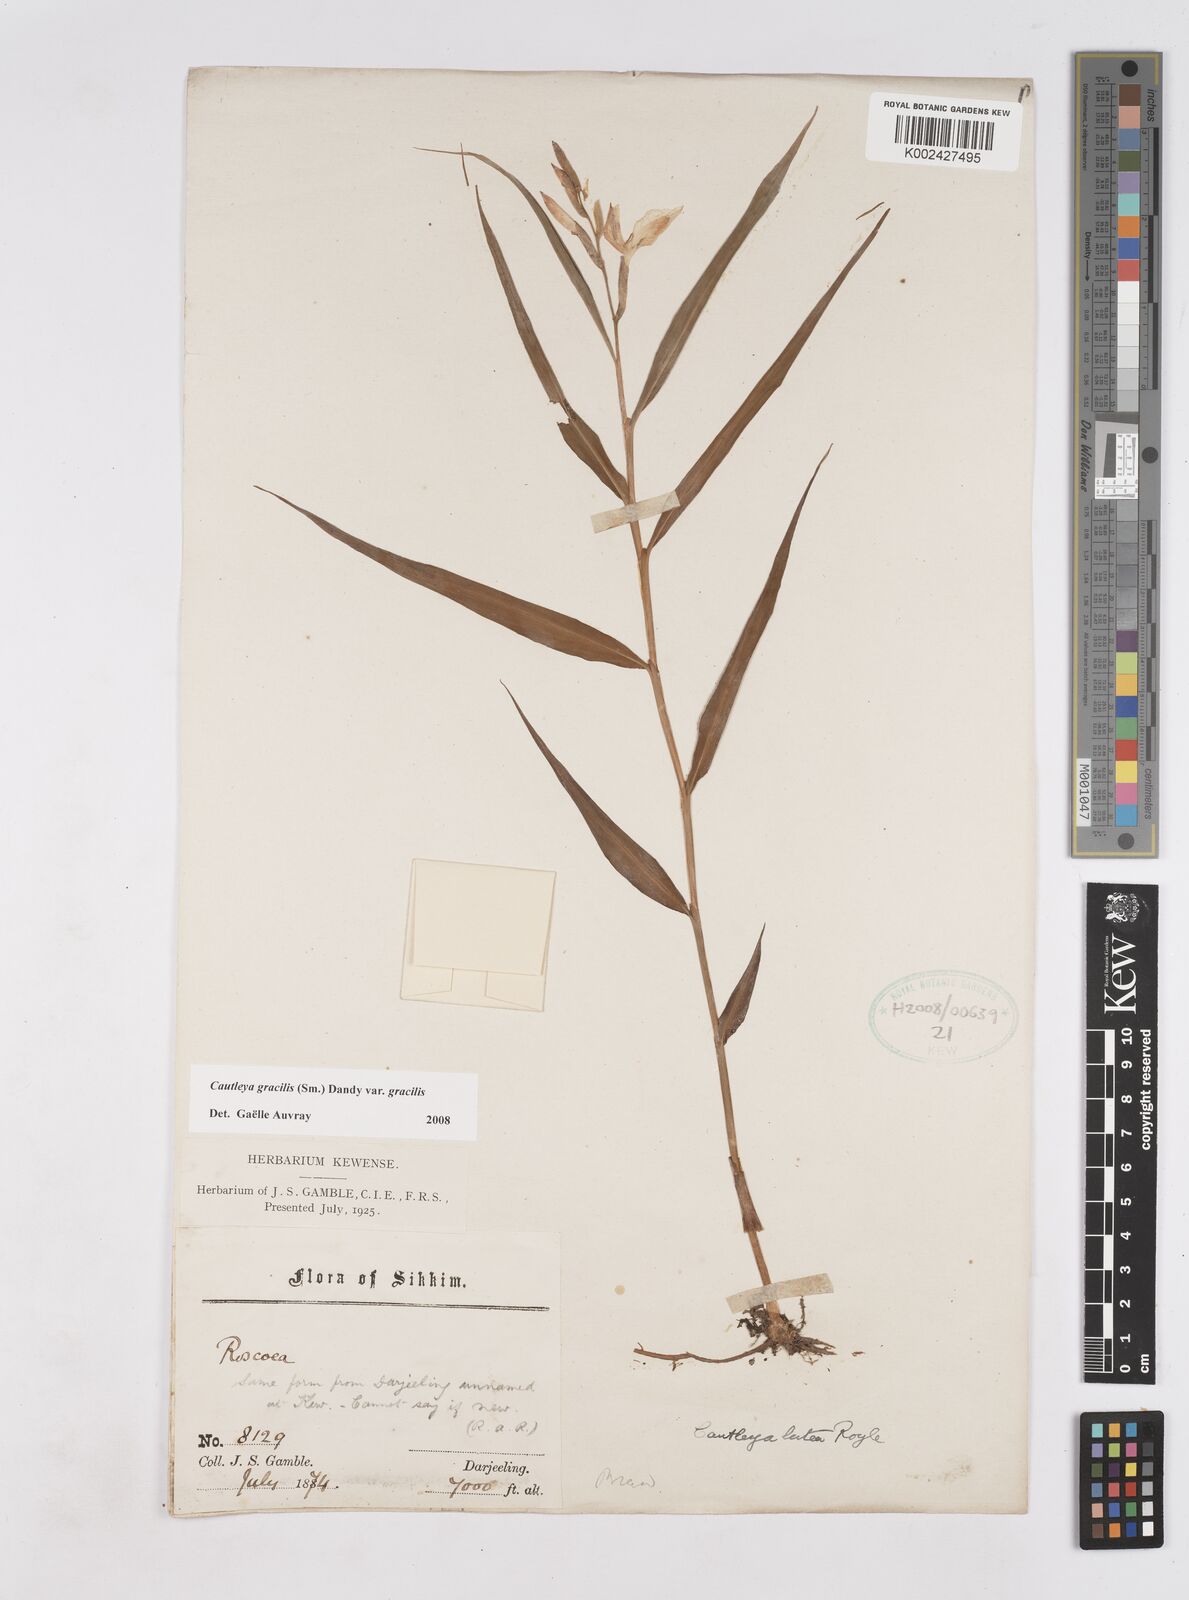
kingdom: Plantae
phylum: Tracheophyta
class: Liliopsida
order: Zingiberales
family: Zingiberaceae
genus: Cautleya
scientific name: Cautleya gracilis
